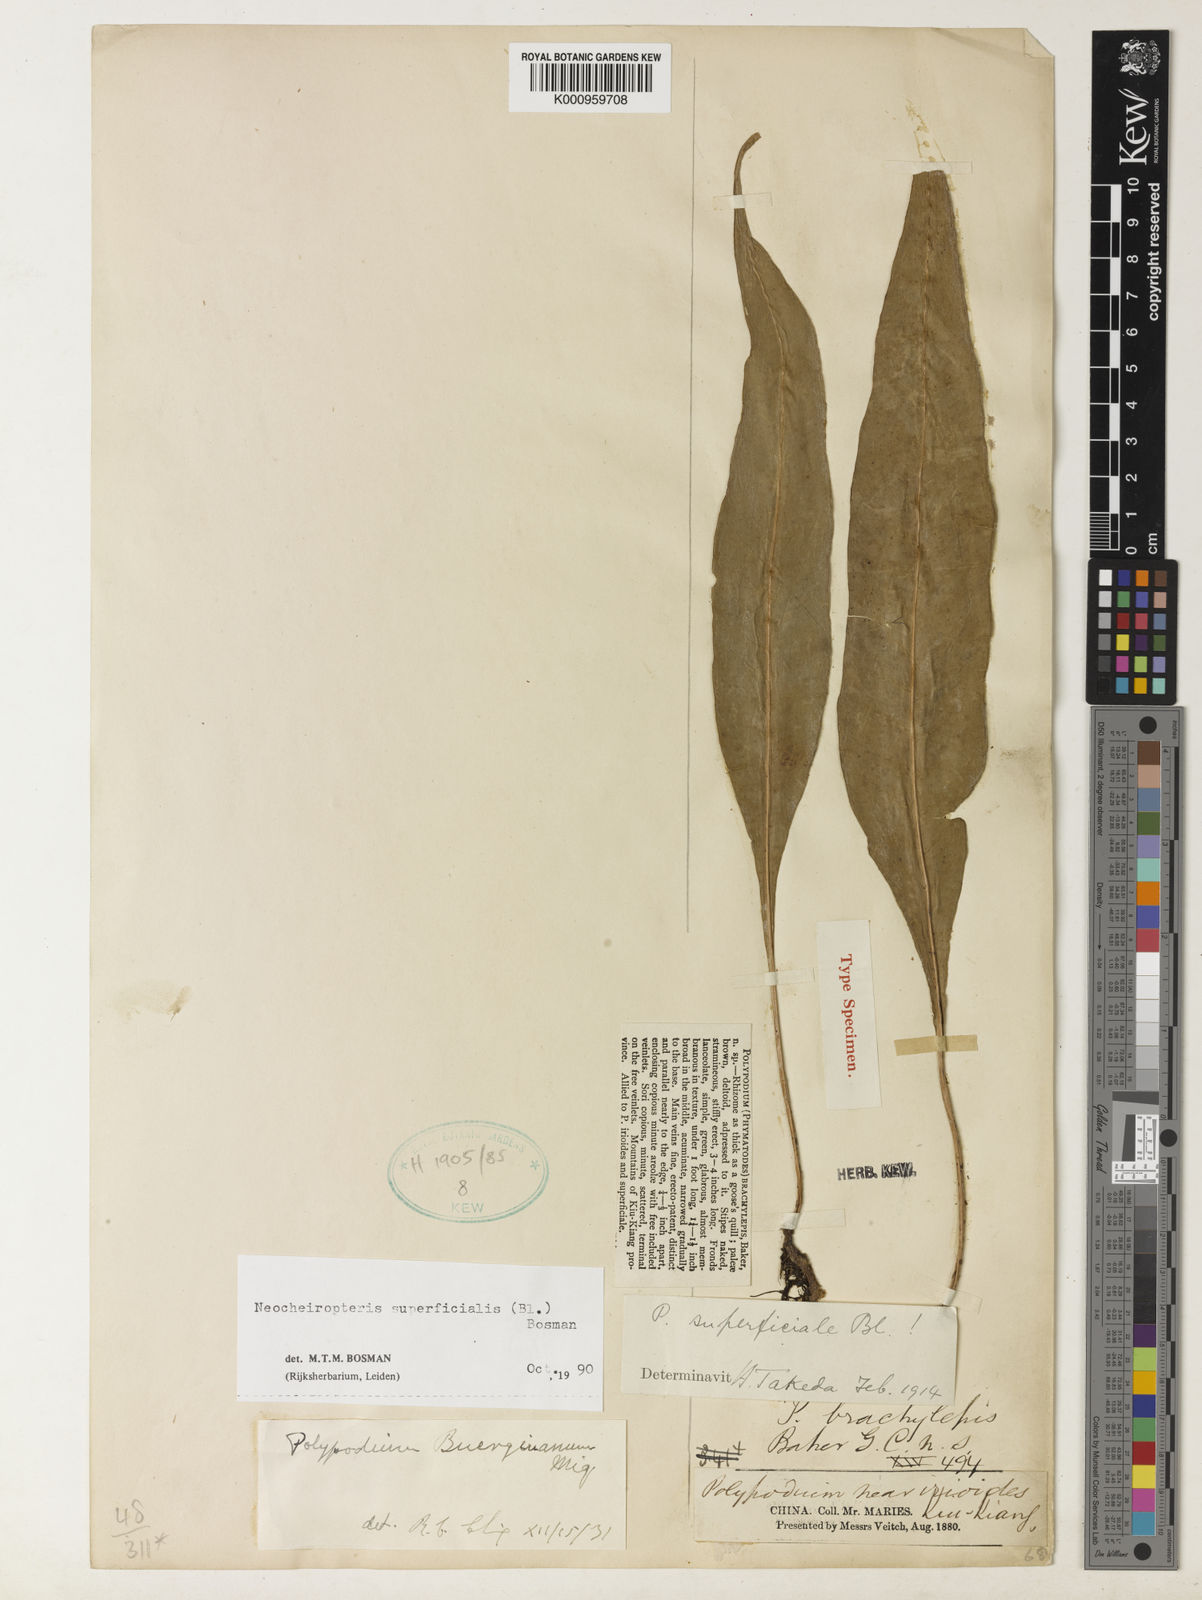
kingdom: Plantae
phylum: Tracheophyta
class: Polypodiopsida
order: Polypodiales
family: Polypodiaceae
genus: Lepisorus
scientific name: Lepisorus buergerianus
